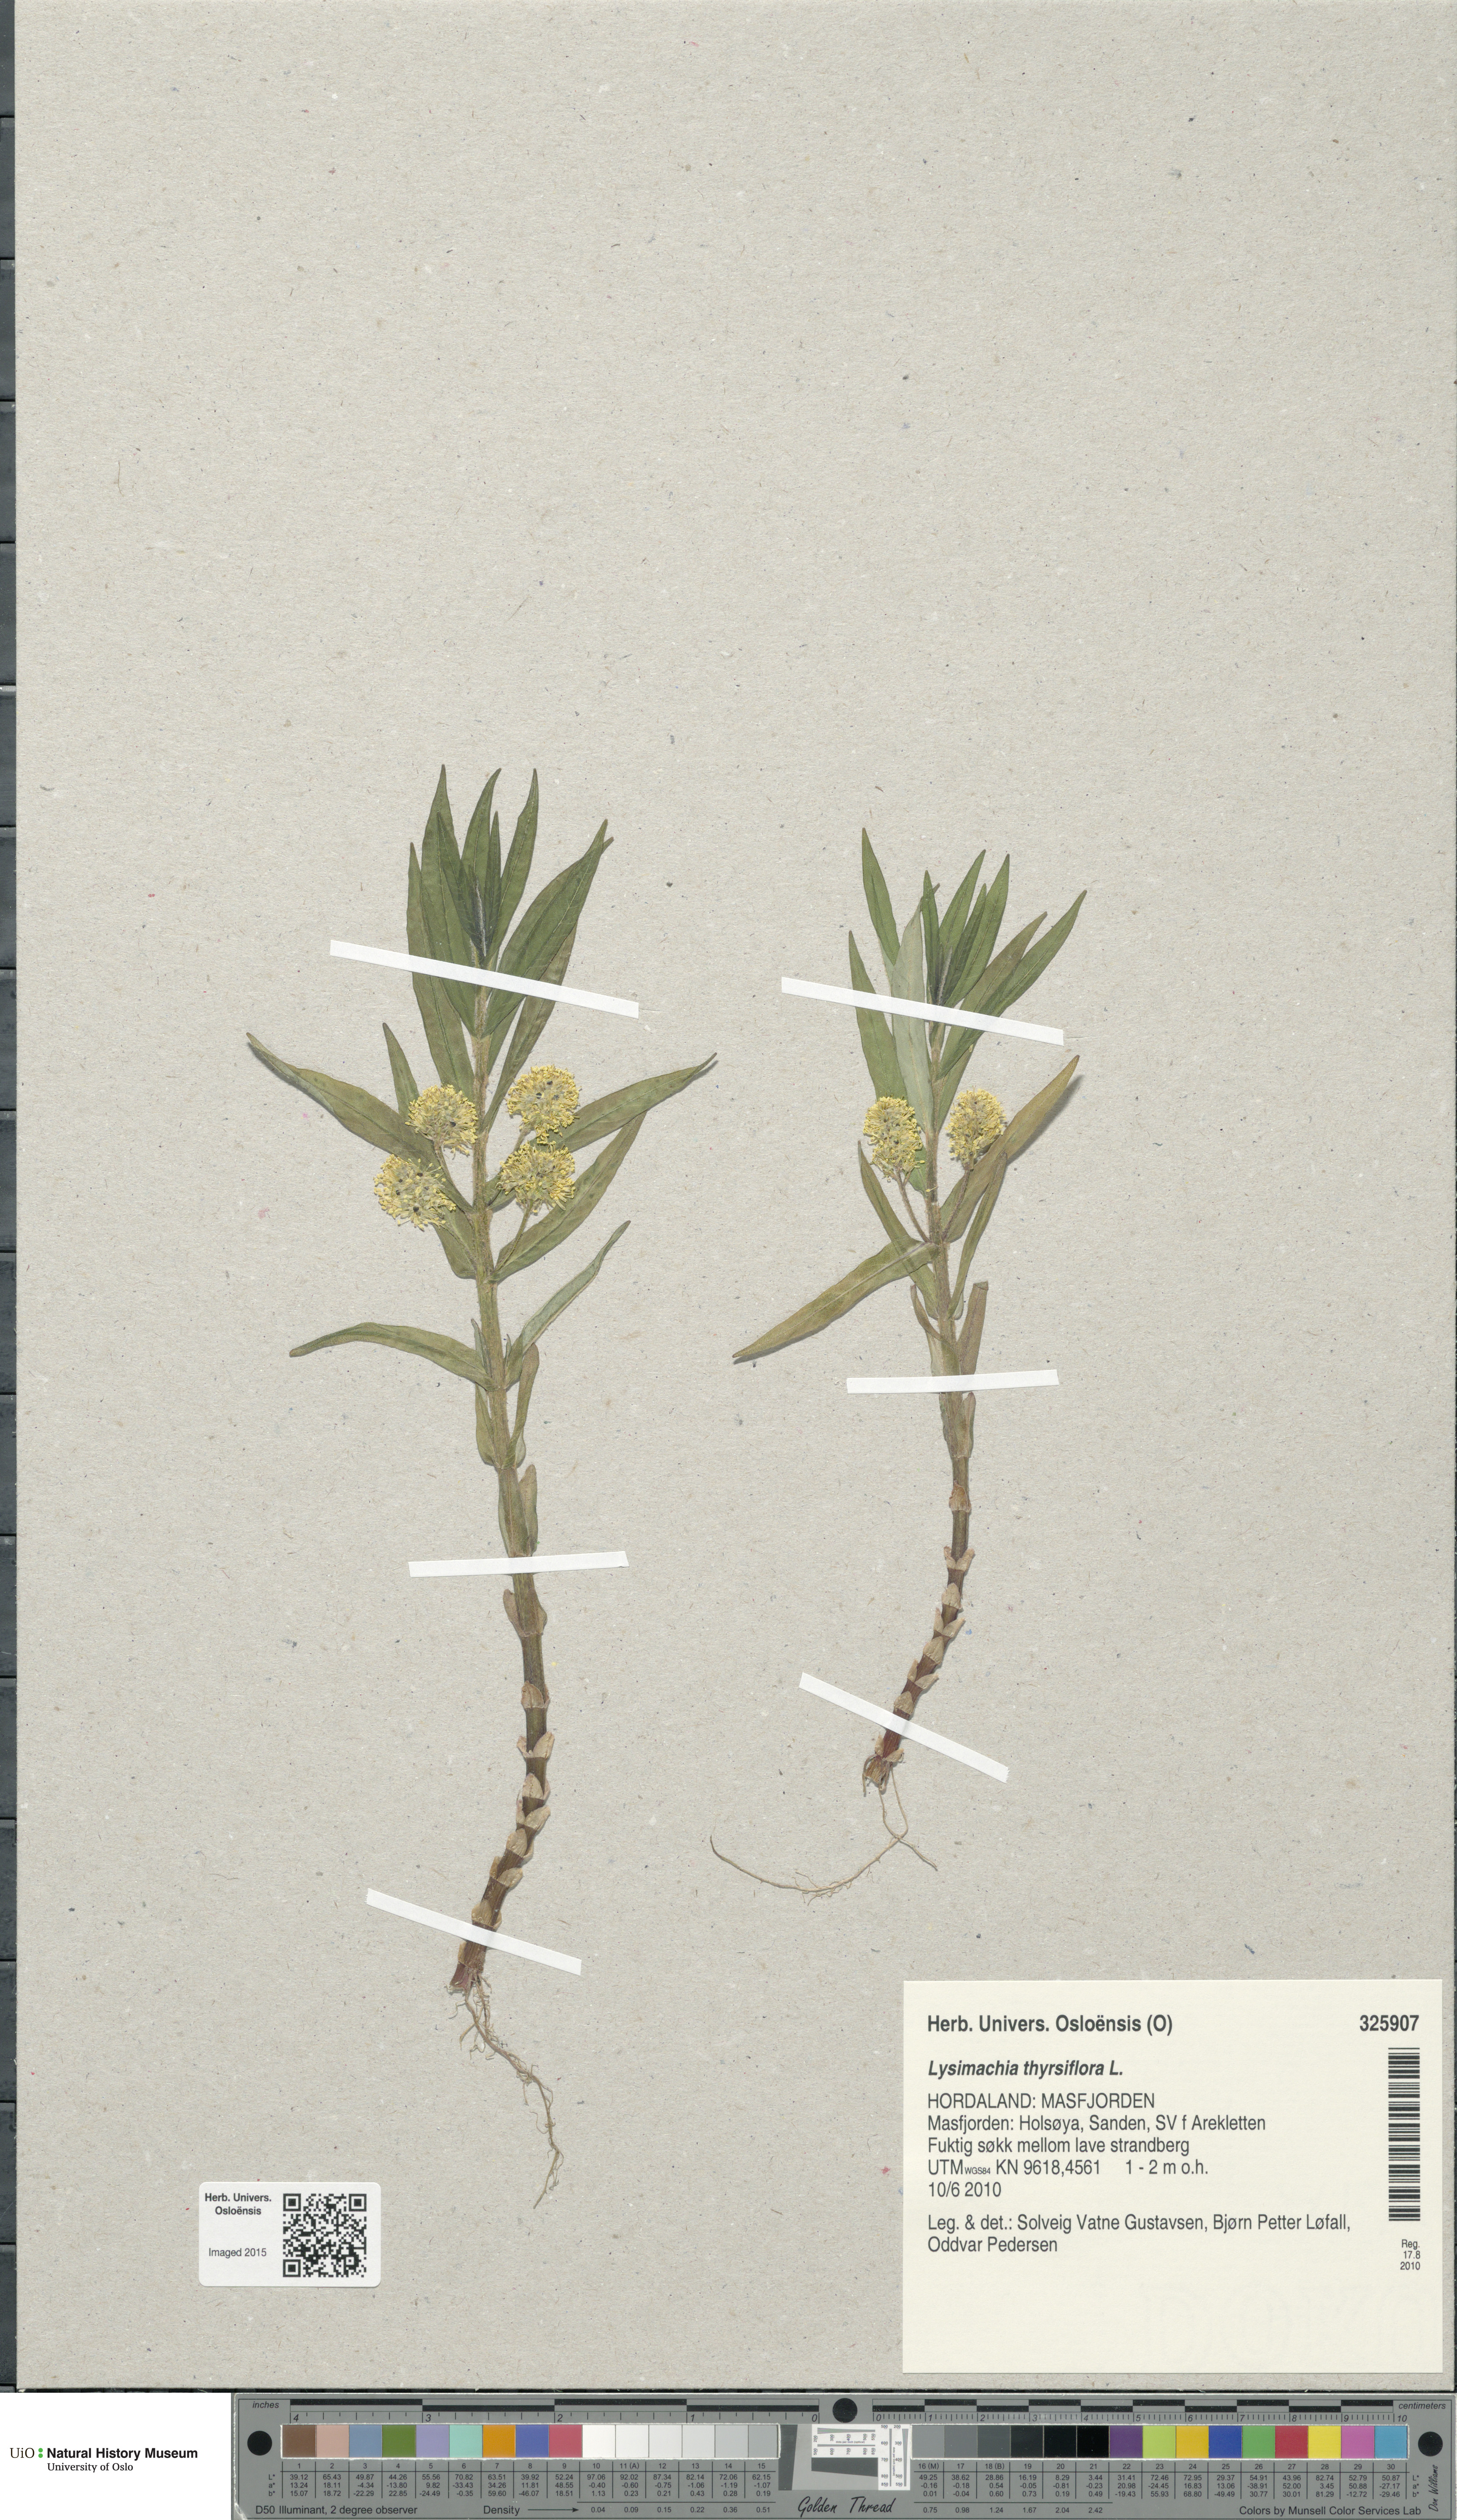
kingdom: Plantae
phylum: Tracheophyta
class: Magnoliopsida
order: Ericales
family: Primulaceae
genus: Lysimachia
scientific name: Lysimachia thyrsiflora
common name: Tufted loosestrife
